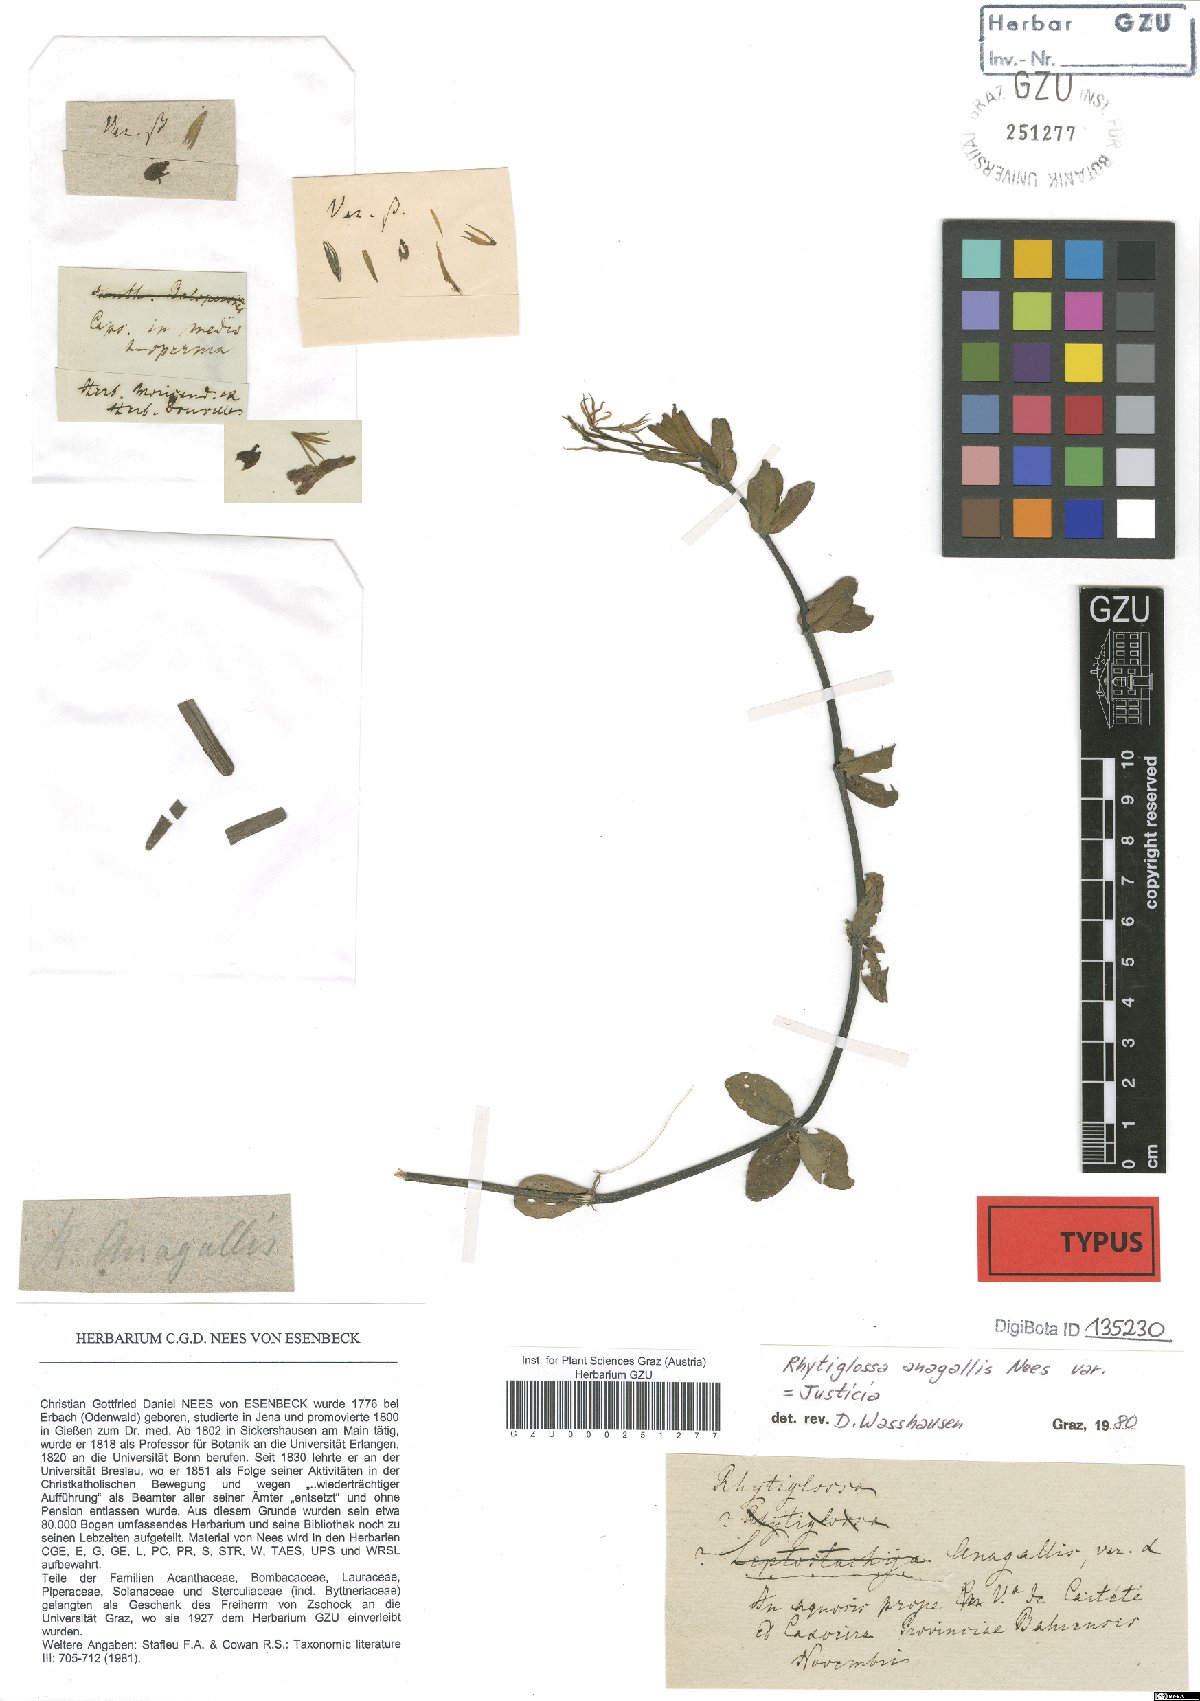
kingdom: Plantae
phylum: Tracheophyta
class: Magnoliopsida
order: Lamiales
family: Acanthaceae
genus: Dianthera
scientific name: Dianthera laevilinguis
